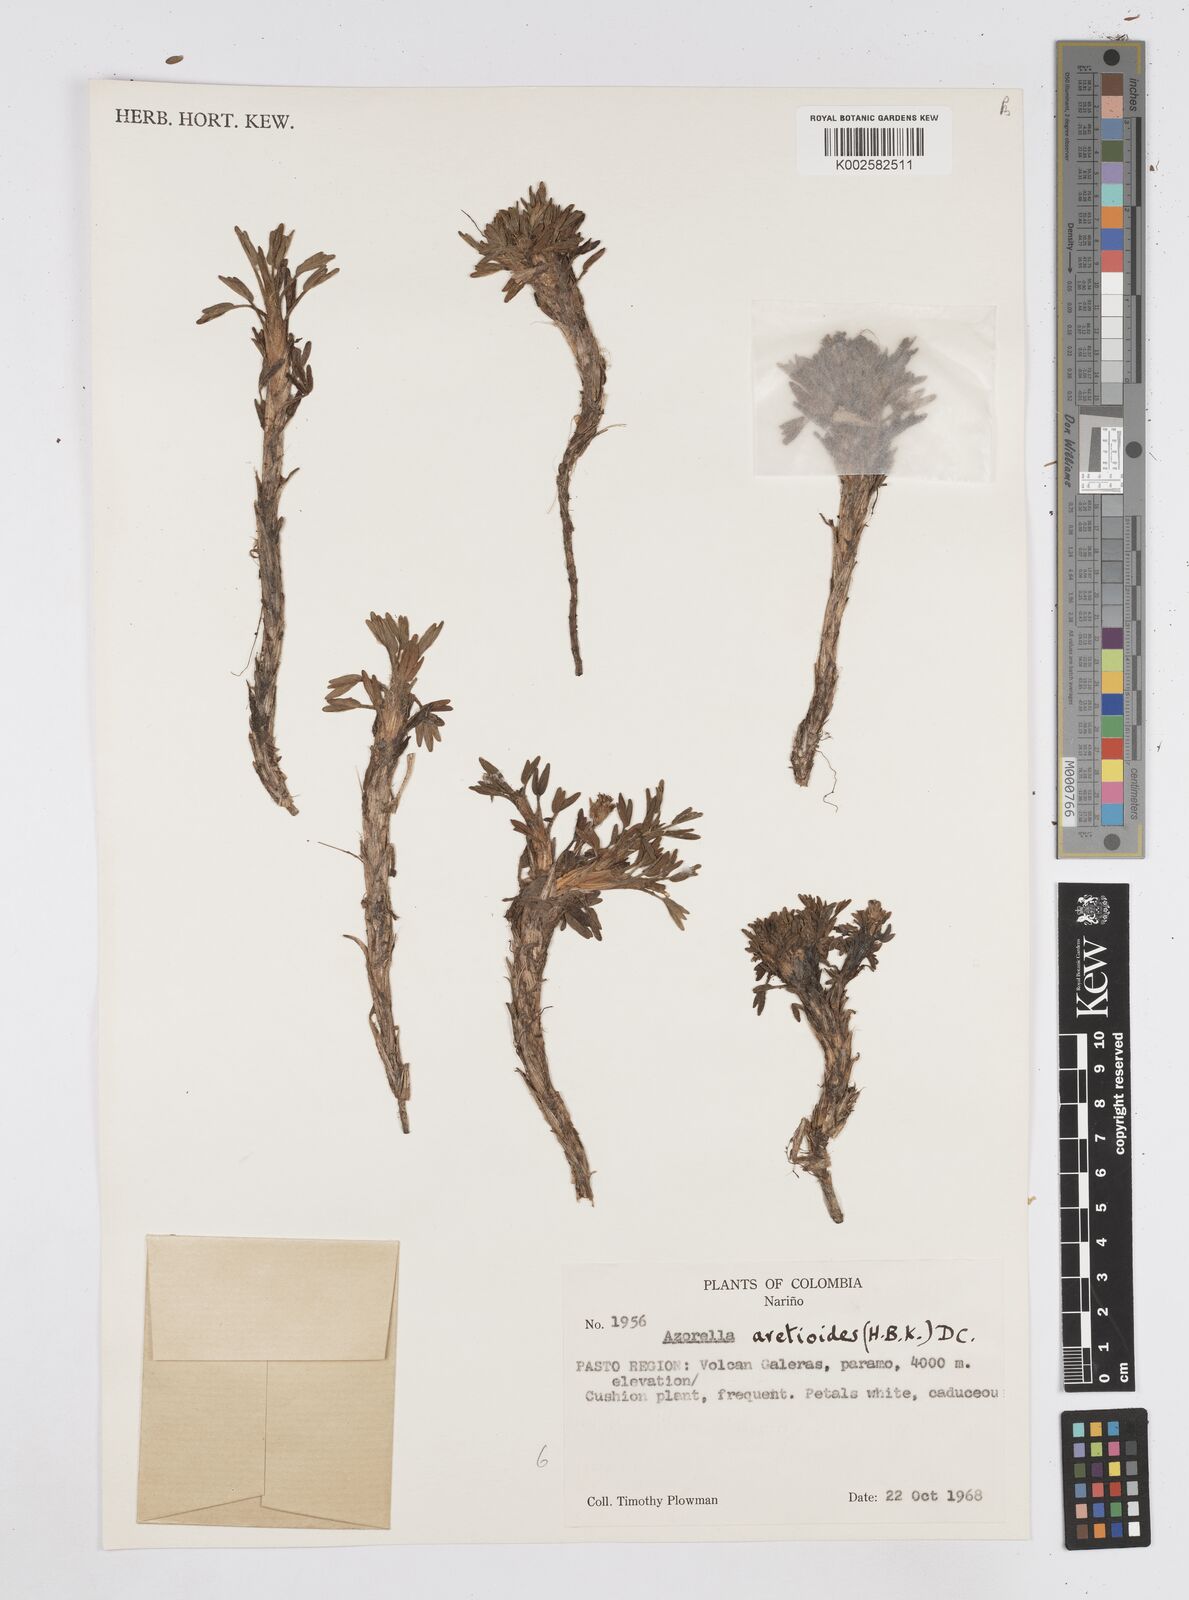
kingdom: Plantae
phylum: Tracheophyta
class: Magnoliopsida
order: Apiales
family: Apiaceae
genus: Azorella
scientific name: Azorella aretioides
